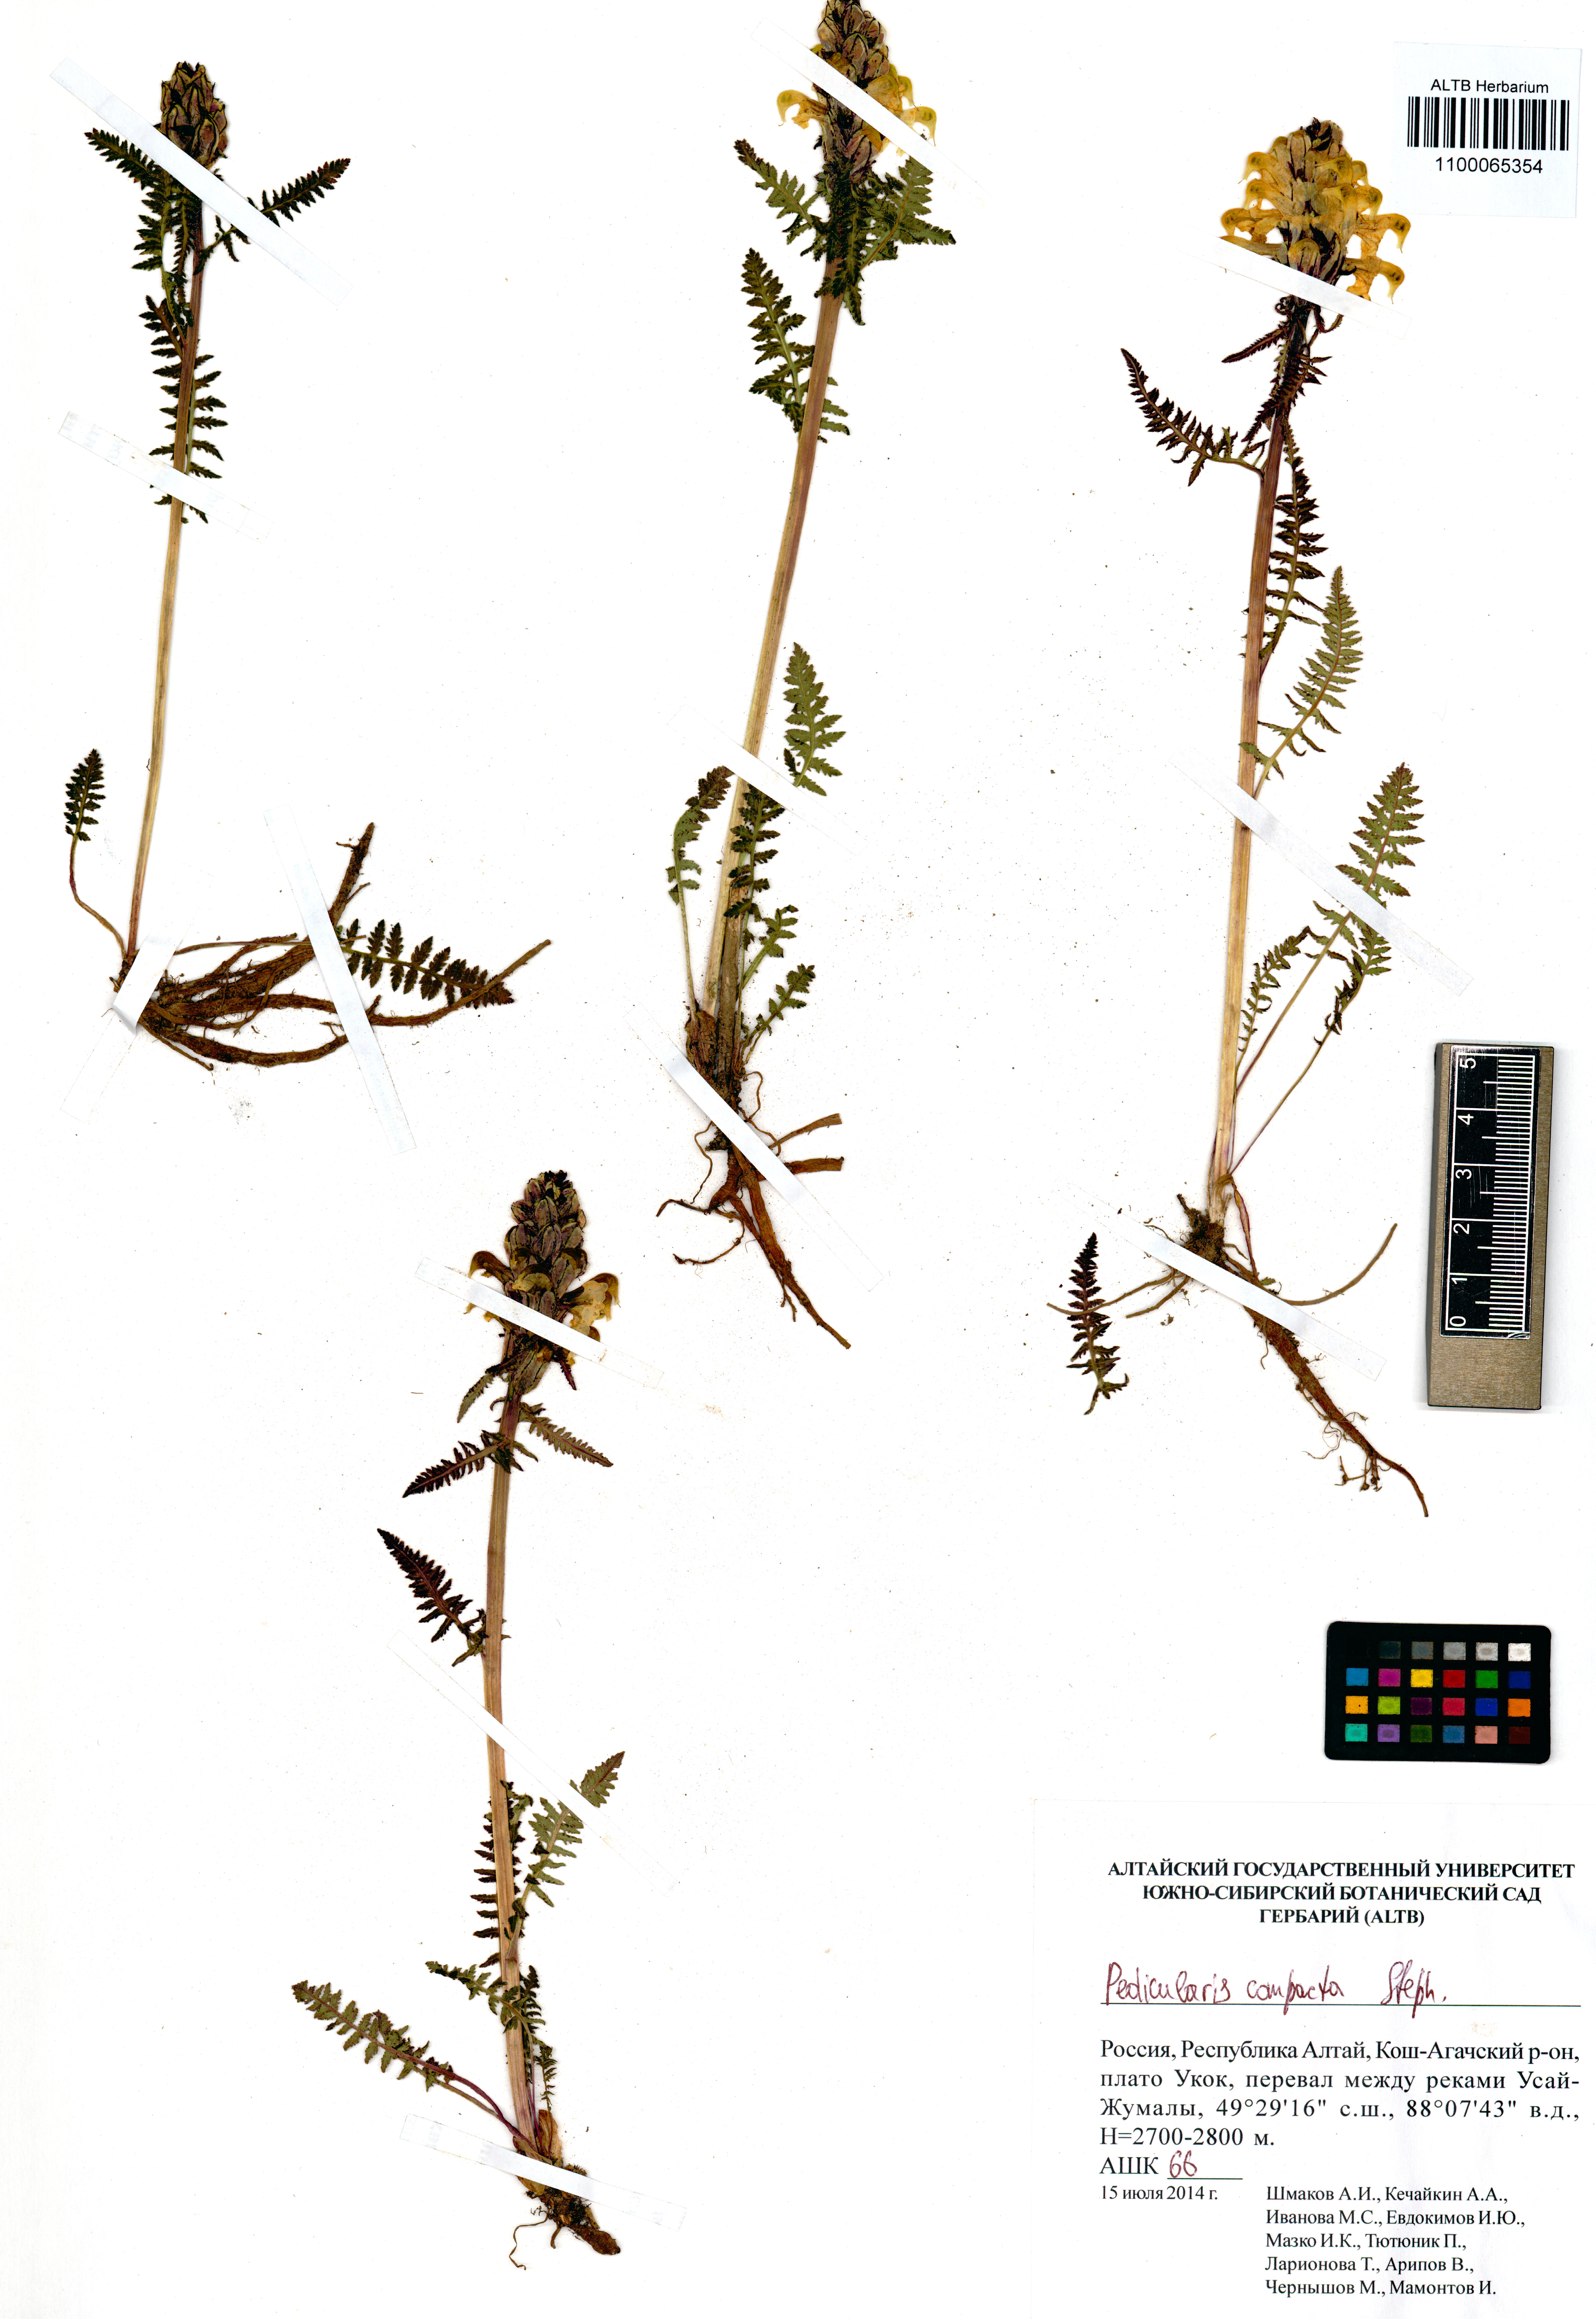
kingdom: Plantae
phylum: Tracheophyta
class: Magnoliopsida
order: Lamiales
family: Orobanchaceae
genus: Pedicularis
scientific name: Pedicularis compacta
